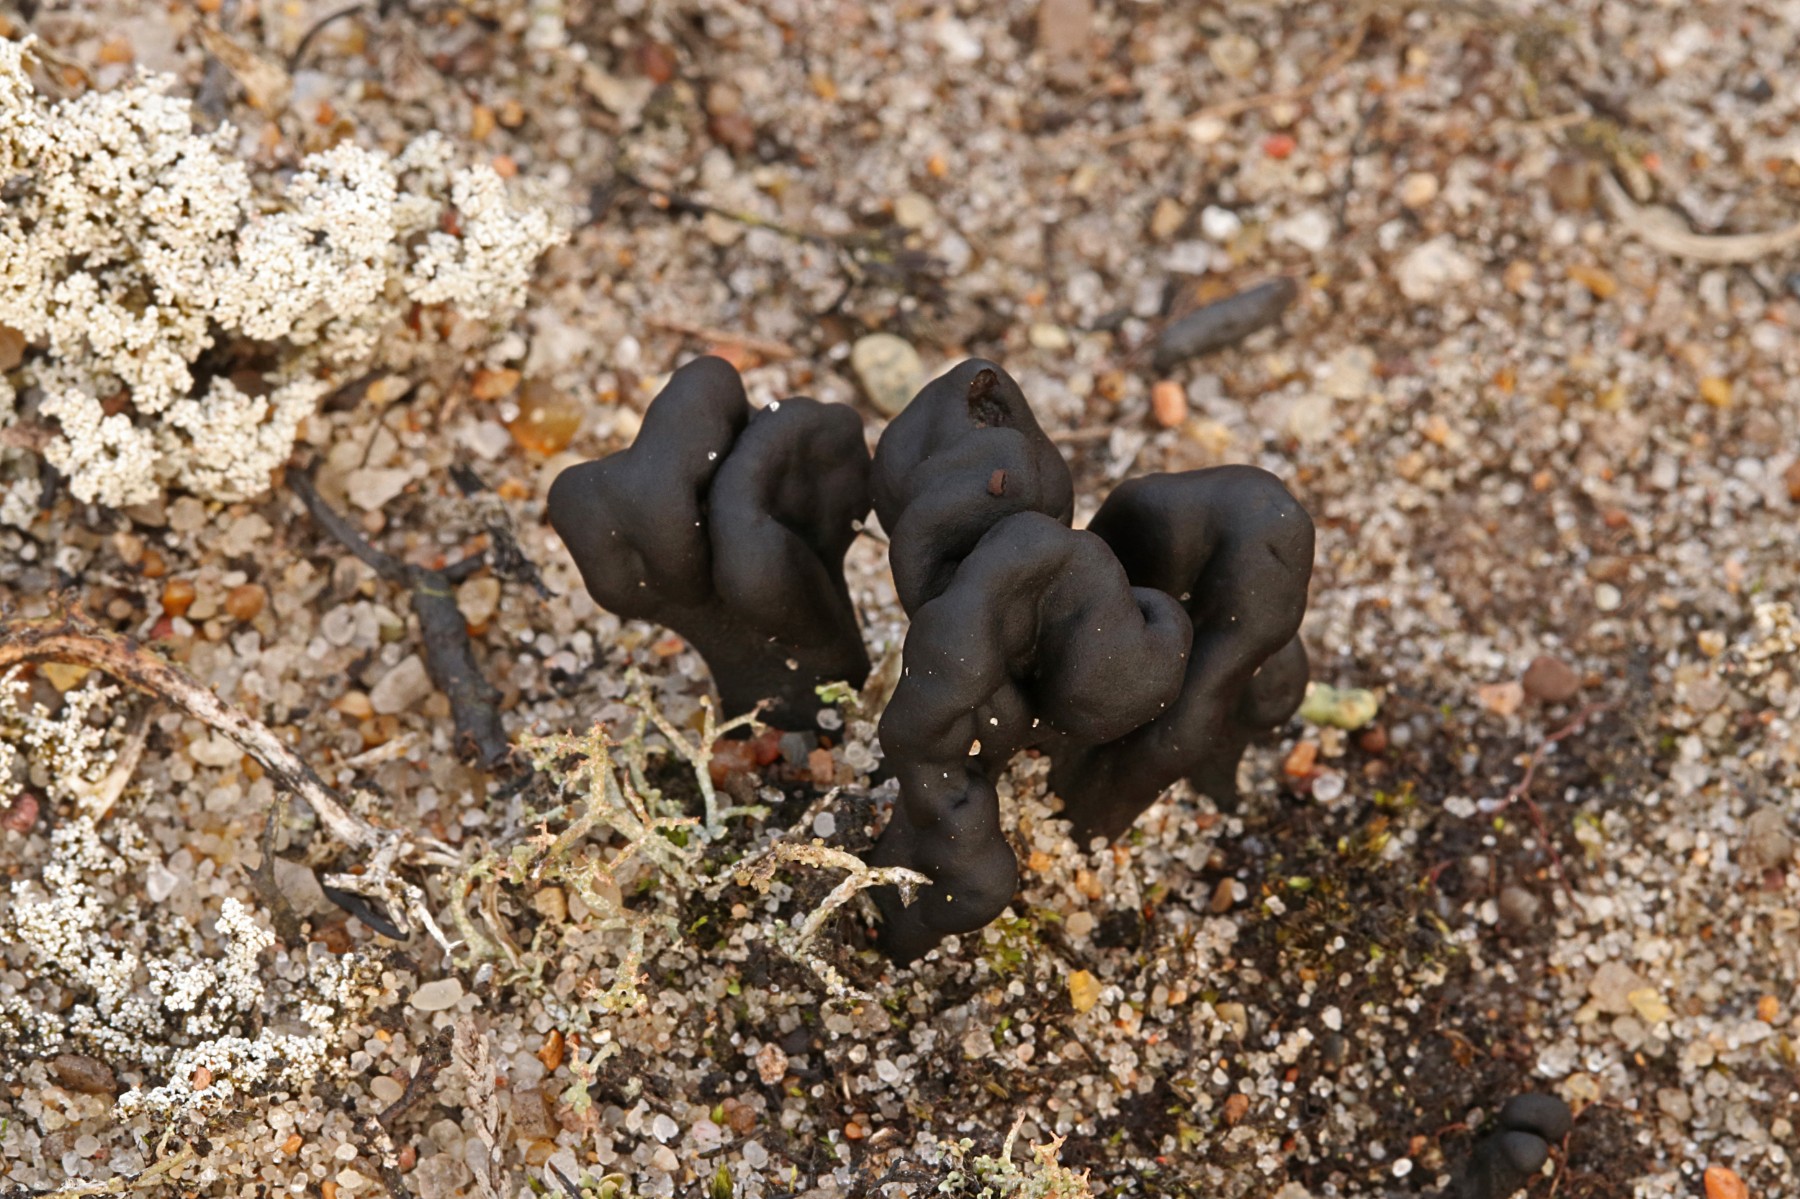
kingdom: Fungi
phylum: Ascomycota
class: Geoglossomycetes
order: Geoglossales
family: Geoglossaceae
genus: Sabuloglossum
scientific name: Sabuloglossum arenarium
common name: klit-jordtunge
